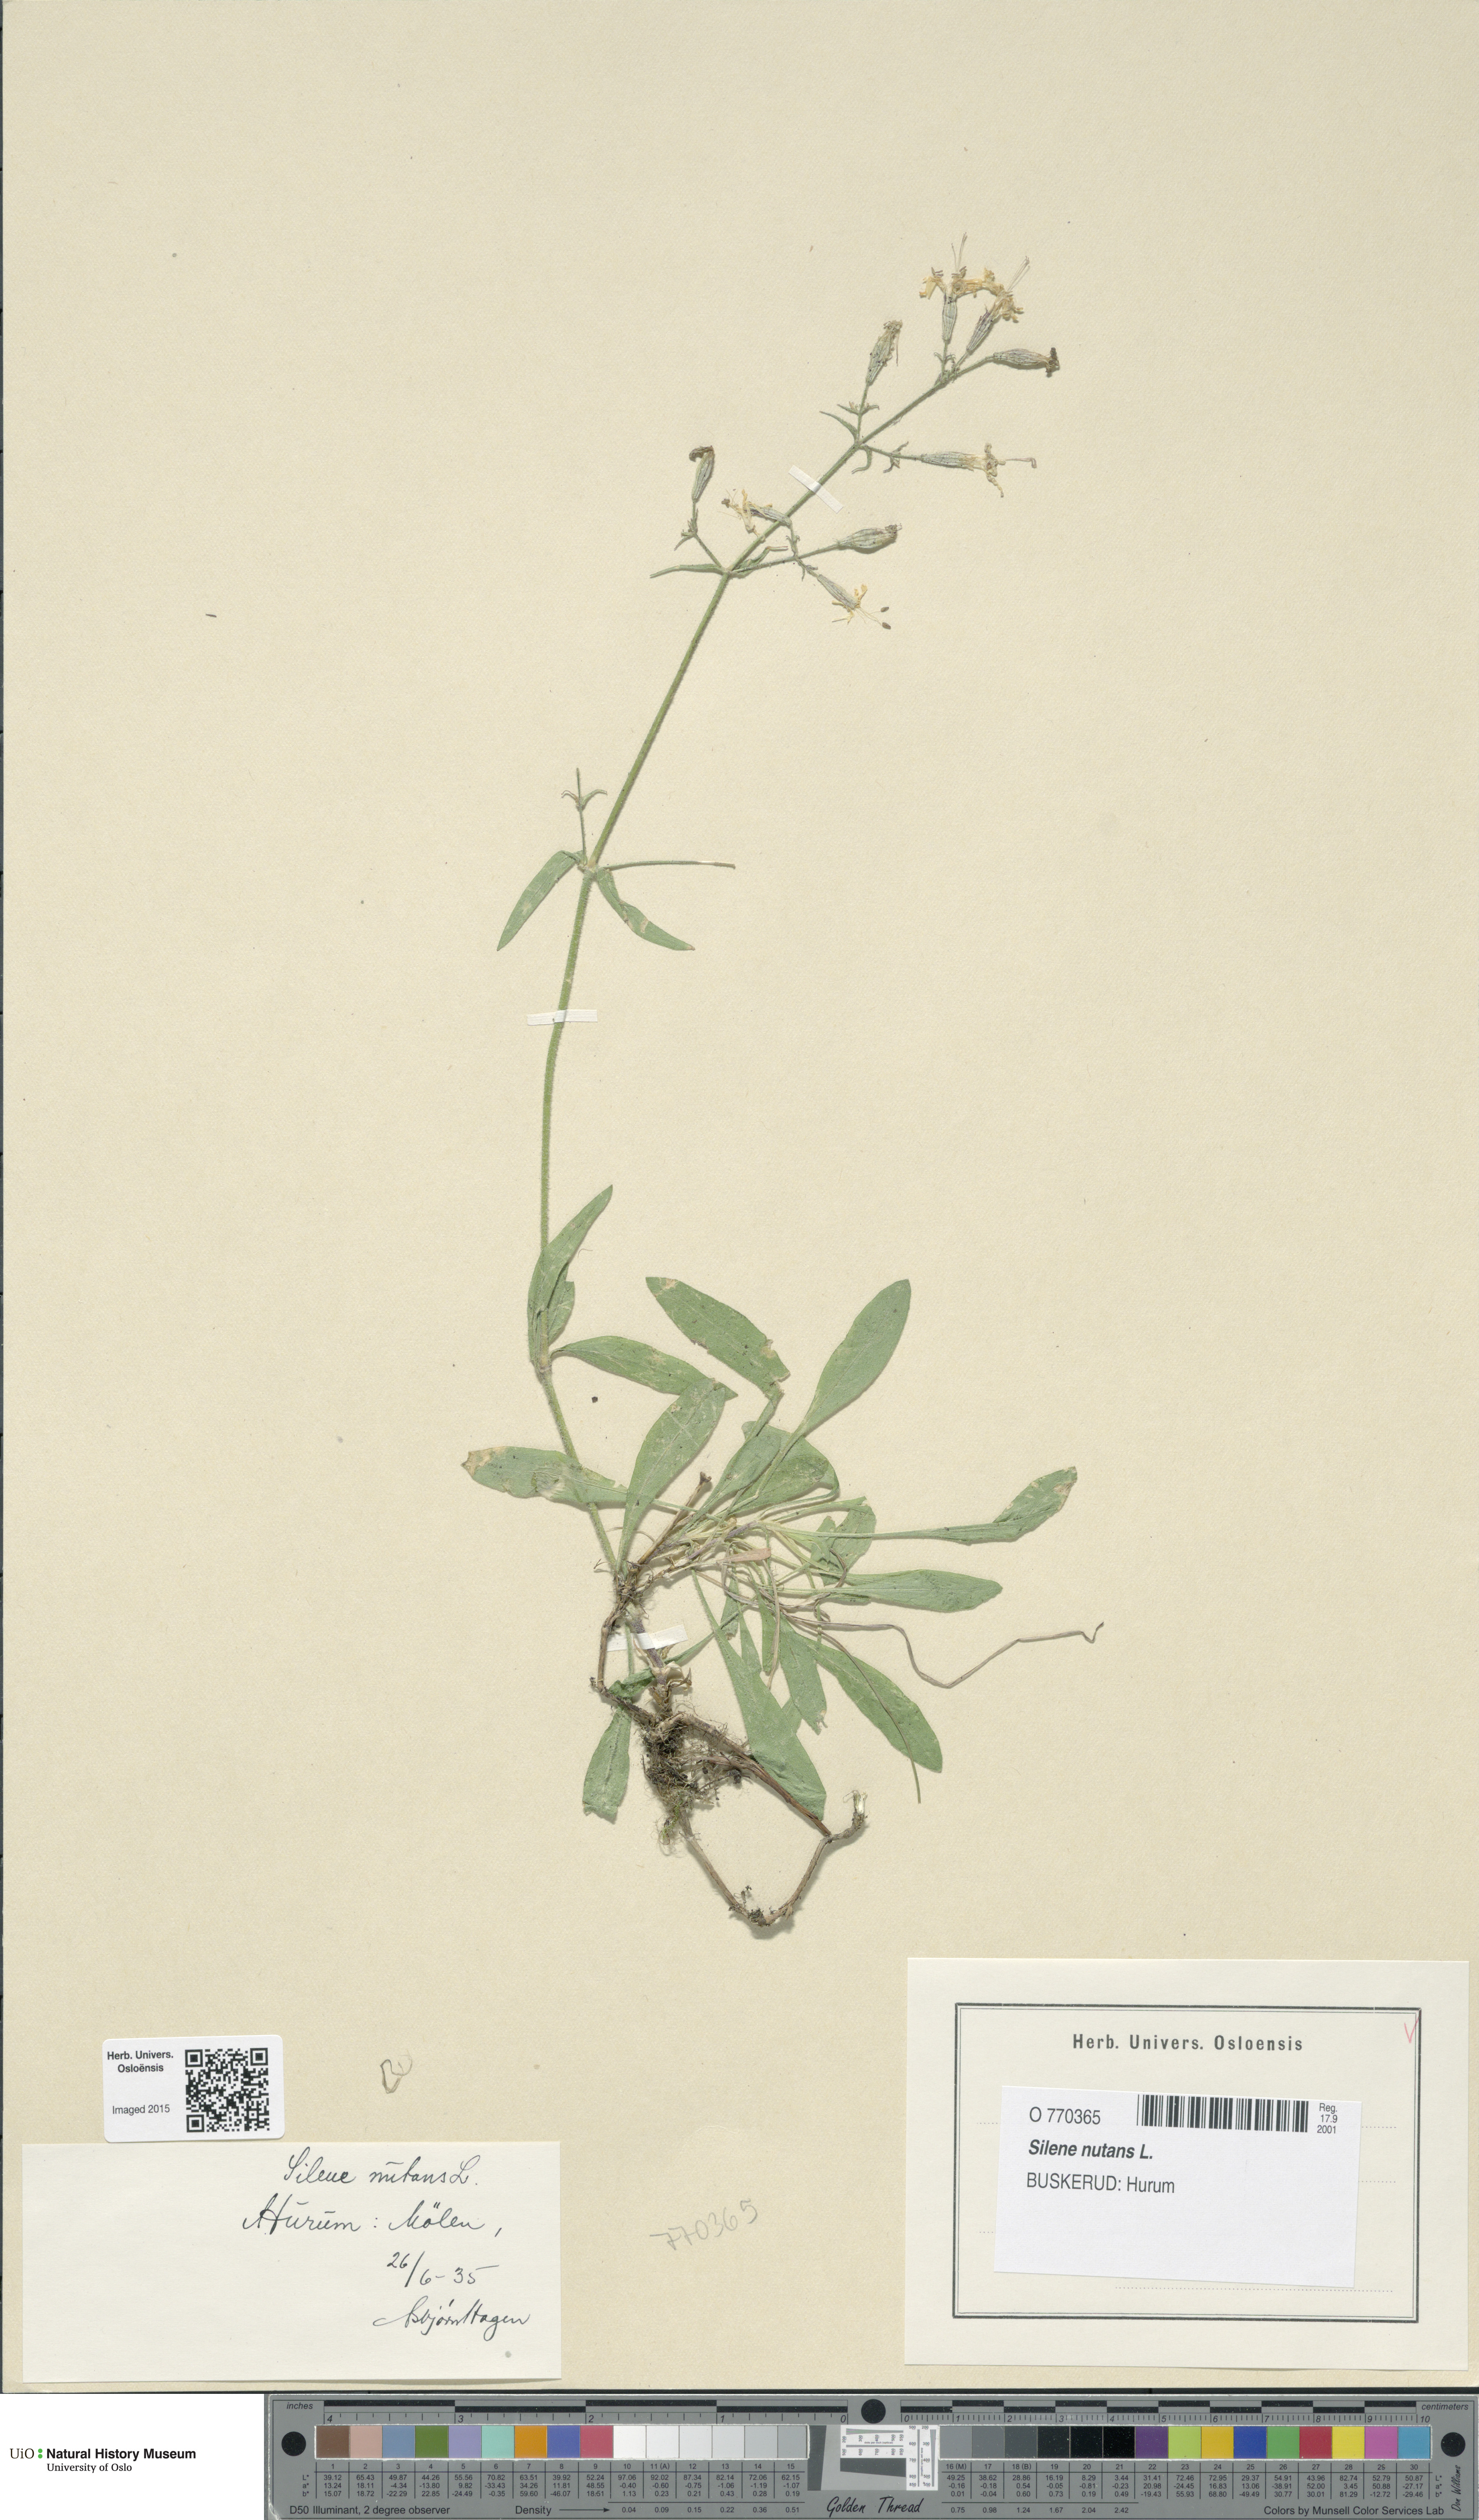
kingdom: Plantae
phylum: Tracheophyta
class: Magnoliopsida
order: Caryophyllales
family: Caryophyllaceae
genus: Silene
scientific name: Silene nutans
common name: Nottingham catchfly
